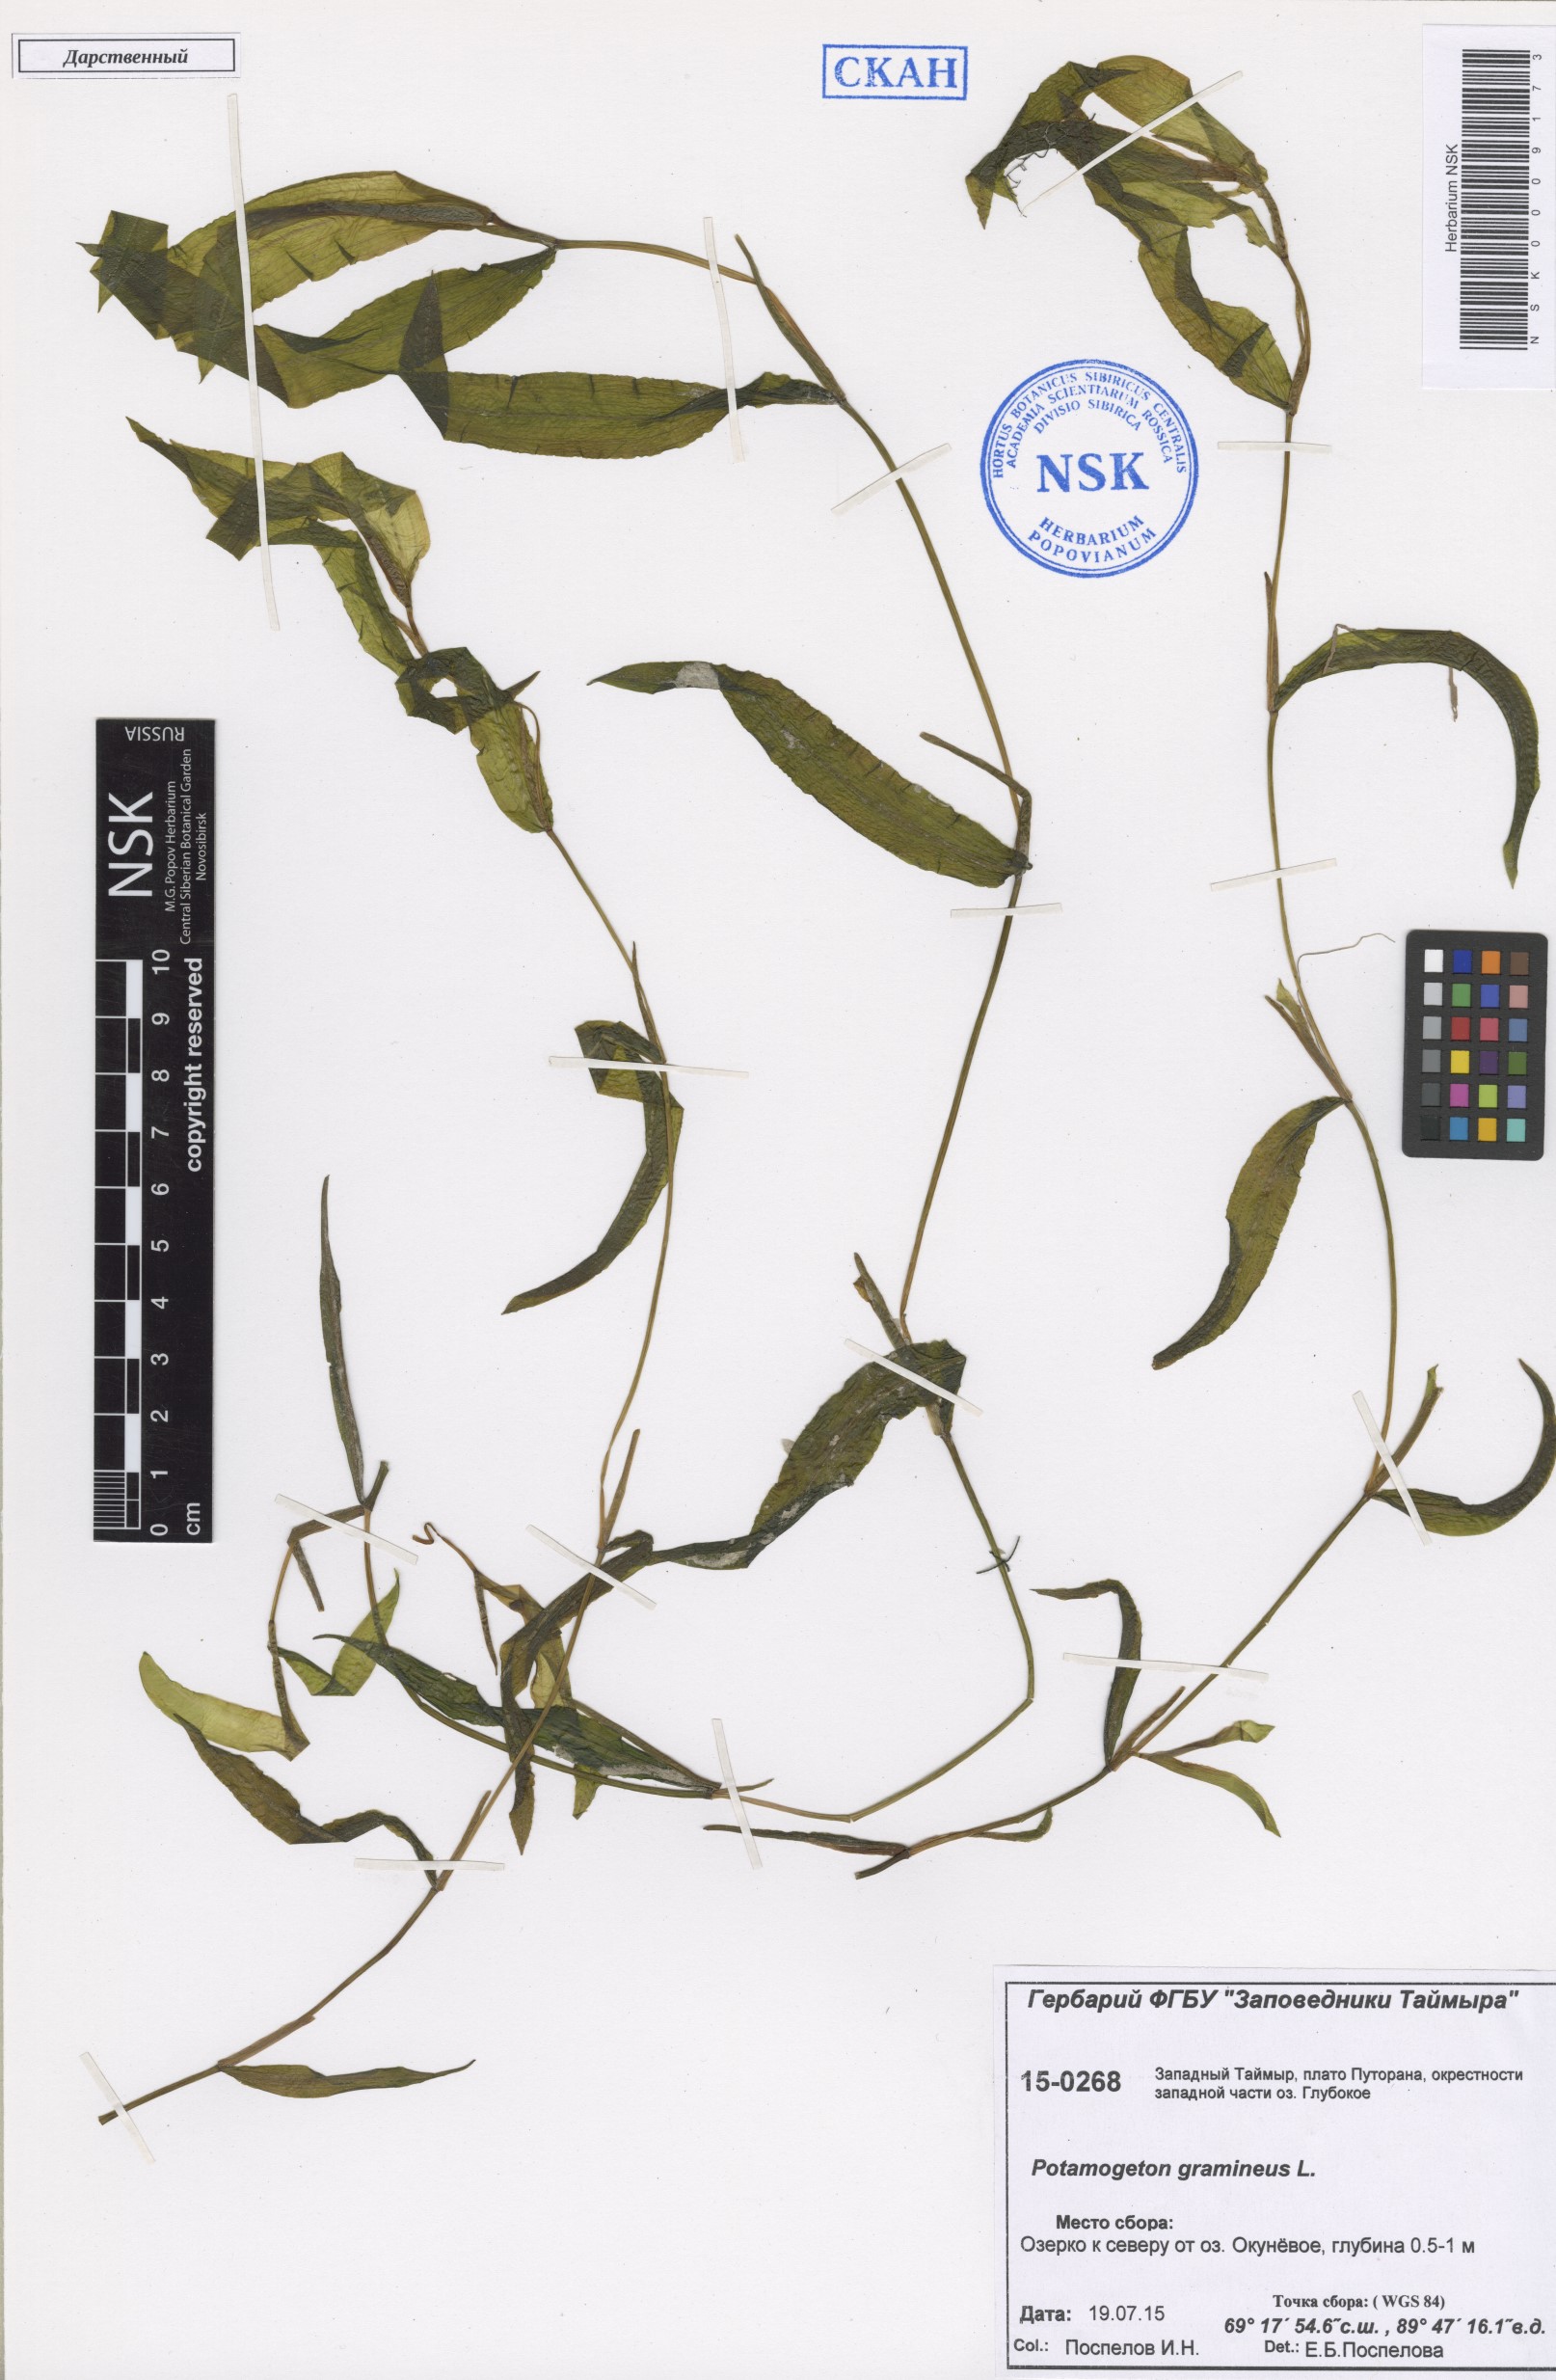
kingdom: Plantae
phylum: Tracheophyta
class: Liliopsida
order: Alismatales
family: Potamogetonaceae
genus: Potamogeton
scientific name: Potamogeton gramineus
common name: Various-leaved pondweed
